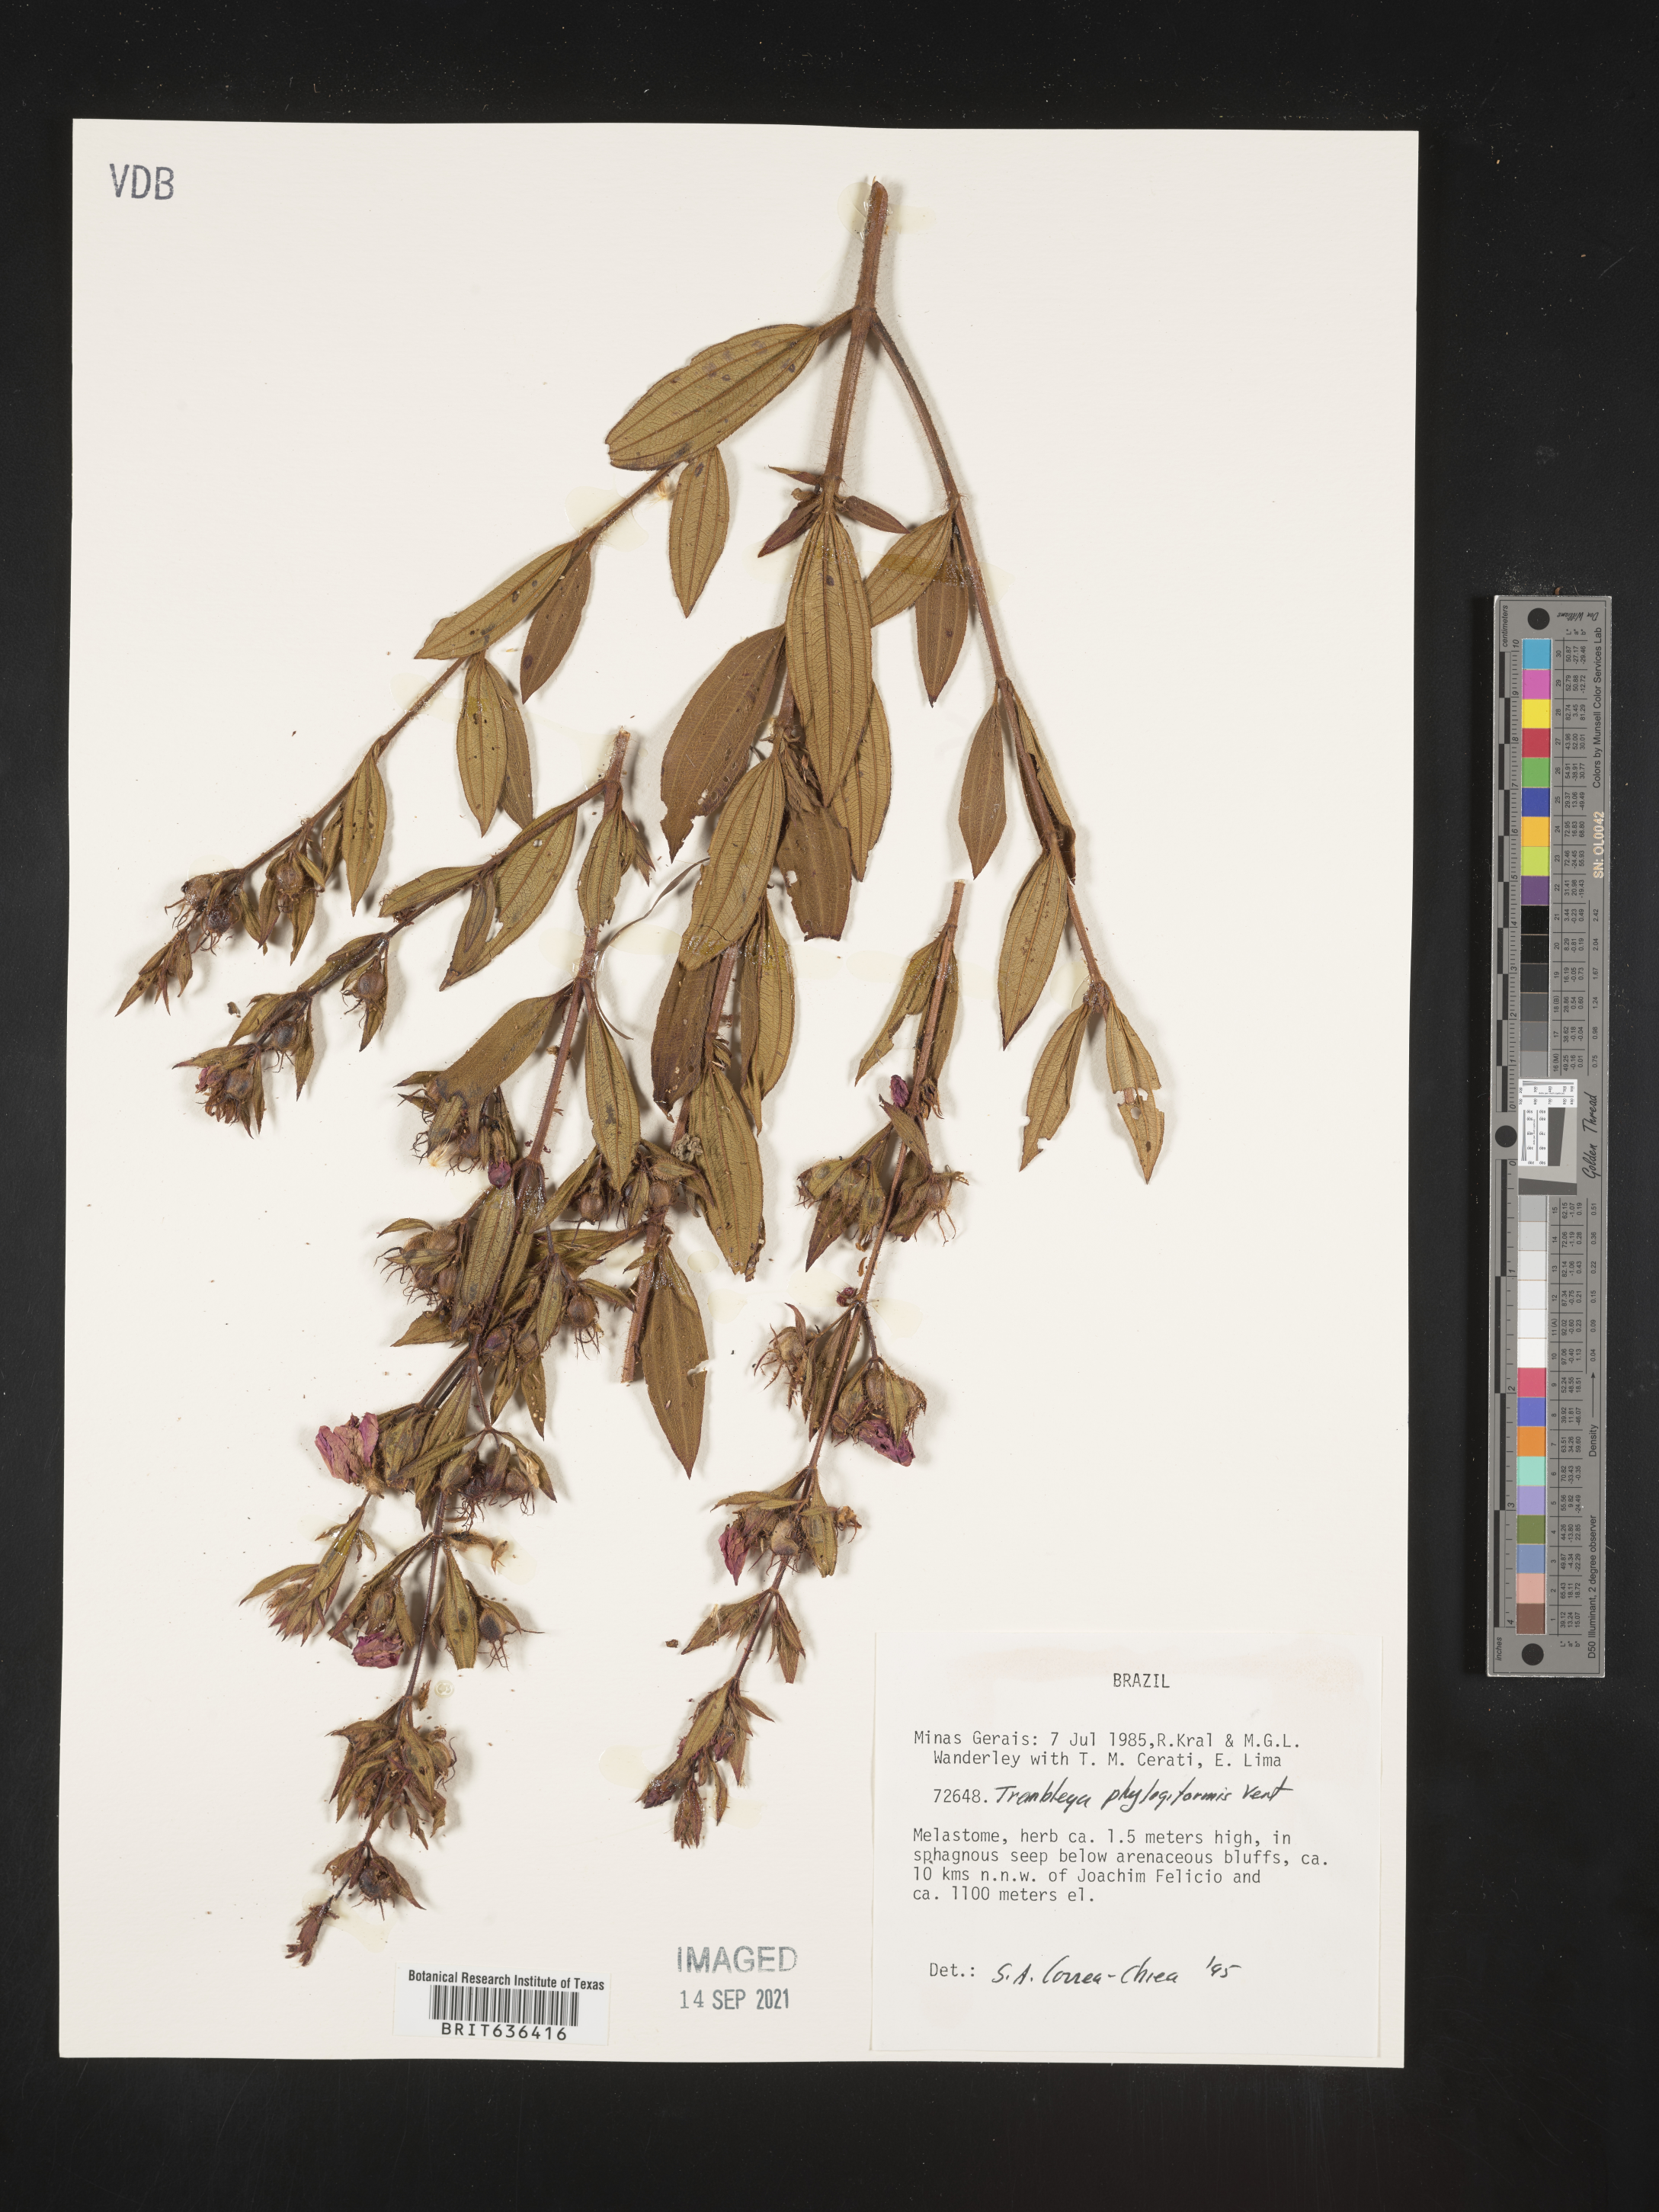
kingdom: Plantae
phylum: Tracheophyta
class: Magnoliopsida
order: Myrtales
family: Melastomataceae
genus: Microlicia
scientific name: Microlicia
